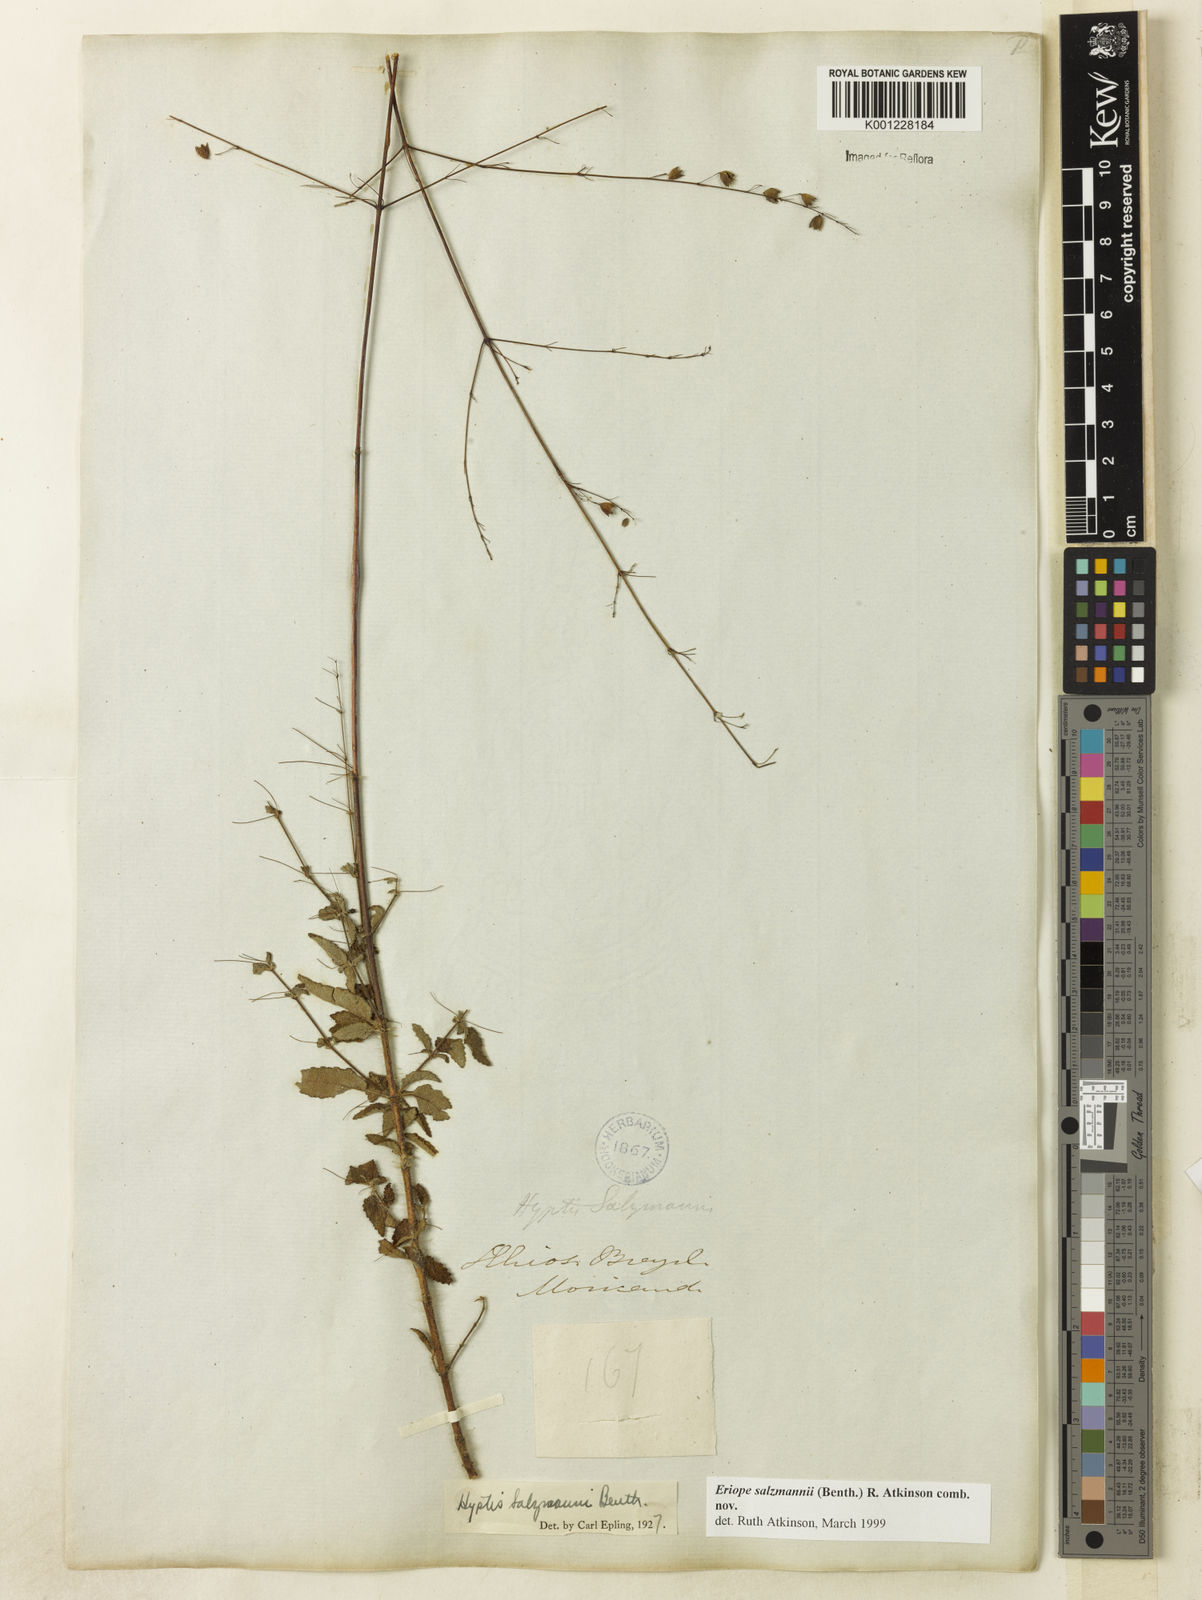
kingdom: Plantae
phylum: Tracheophyta
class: Magnoliopsida
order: Lamiales
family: Lamiaceae
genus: Hypenia
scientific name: Hypenia salzmannii
